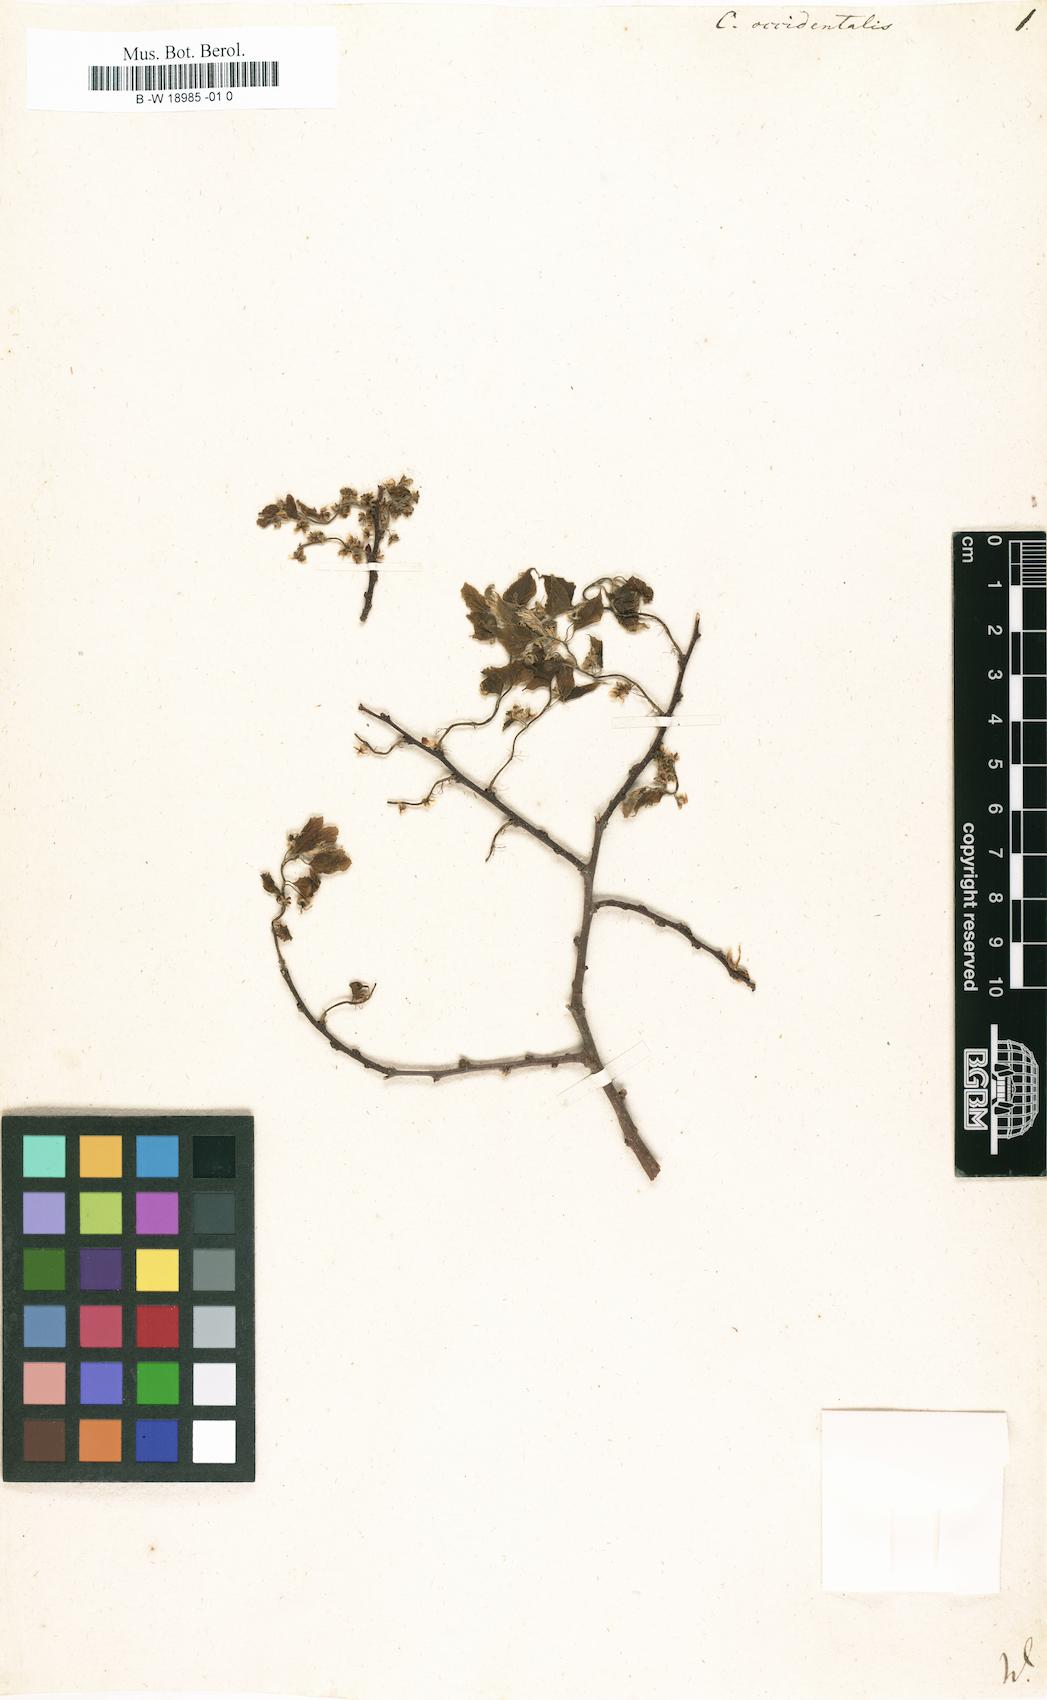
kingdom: Plantae
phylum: Tracheophyta
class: Magnoliopsida
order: Rosales
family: Cannabaceae
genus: Celtis
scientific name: Celtis occidentalis
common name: Common hackberry
